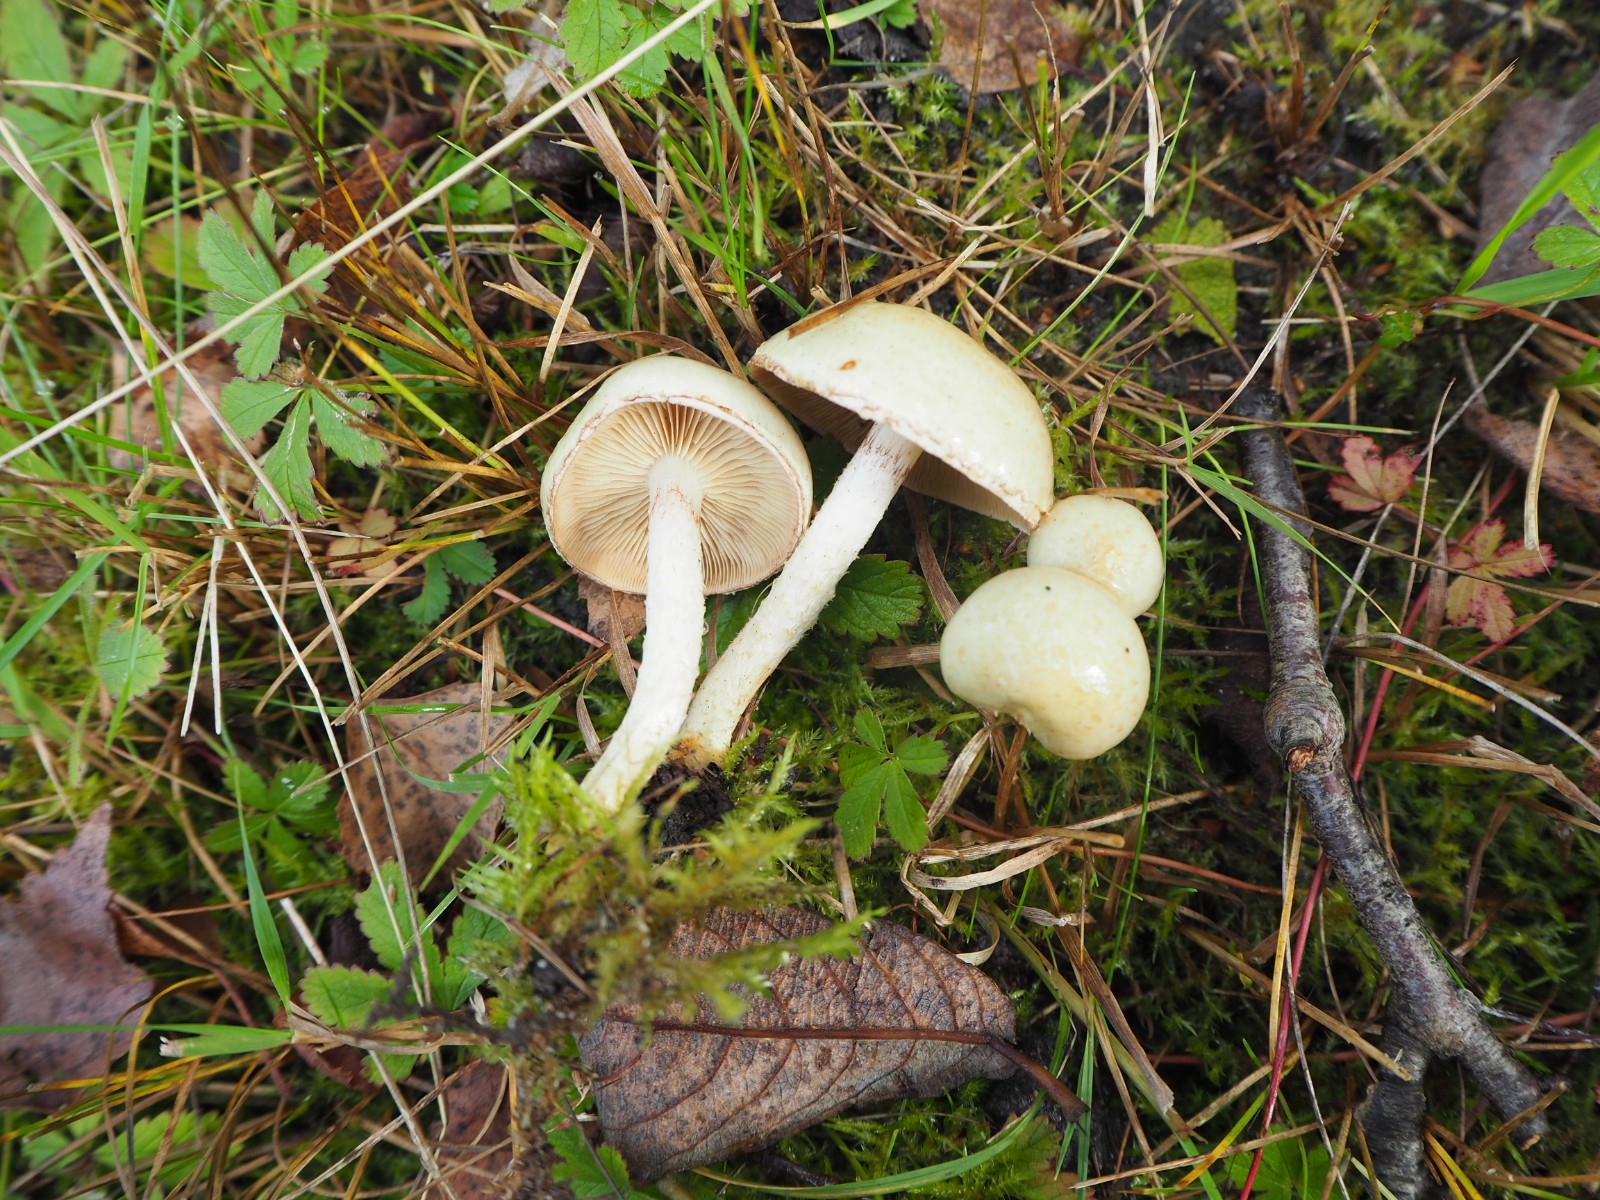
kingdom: Fungi
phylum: Basidiomycota
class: Agaricomycetes
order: Agaricales
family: Strophariaceae
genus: Pholiota
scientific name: Pholiota gummosa
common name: grøngul skælhat
